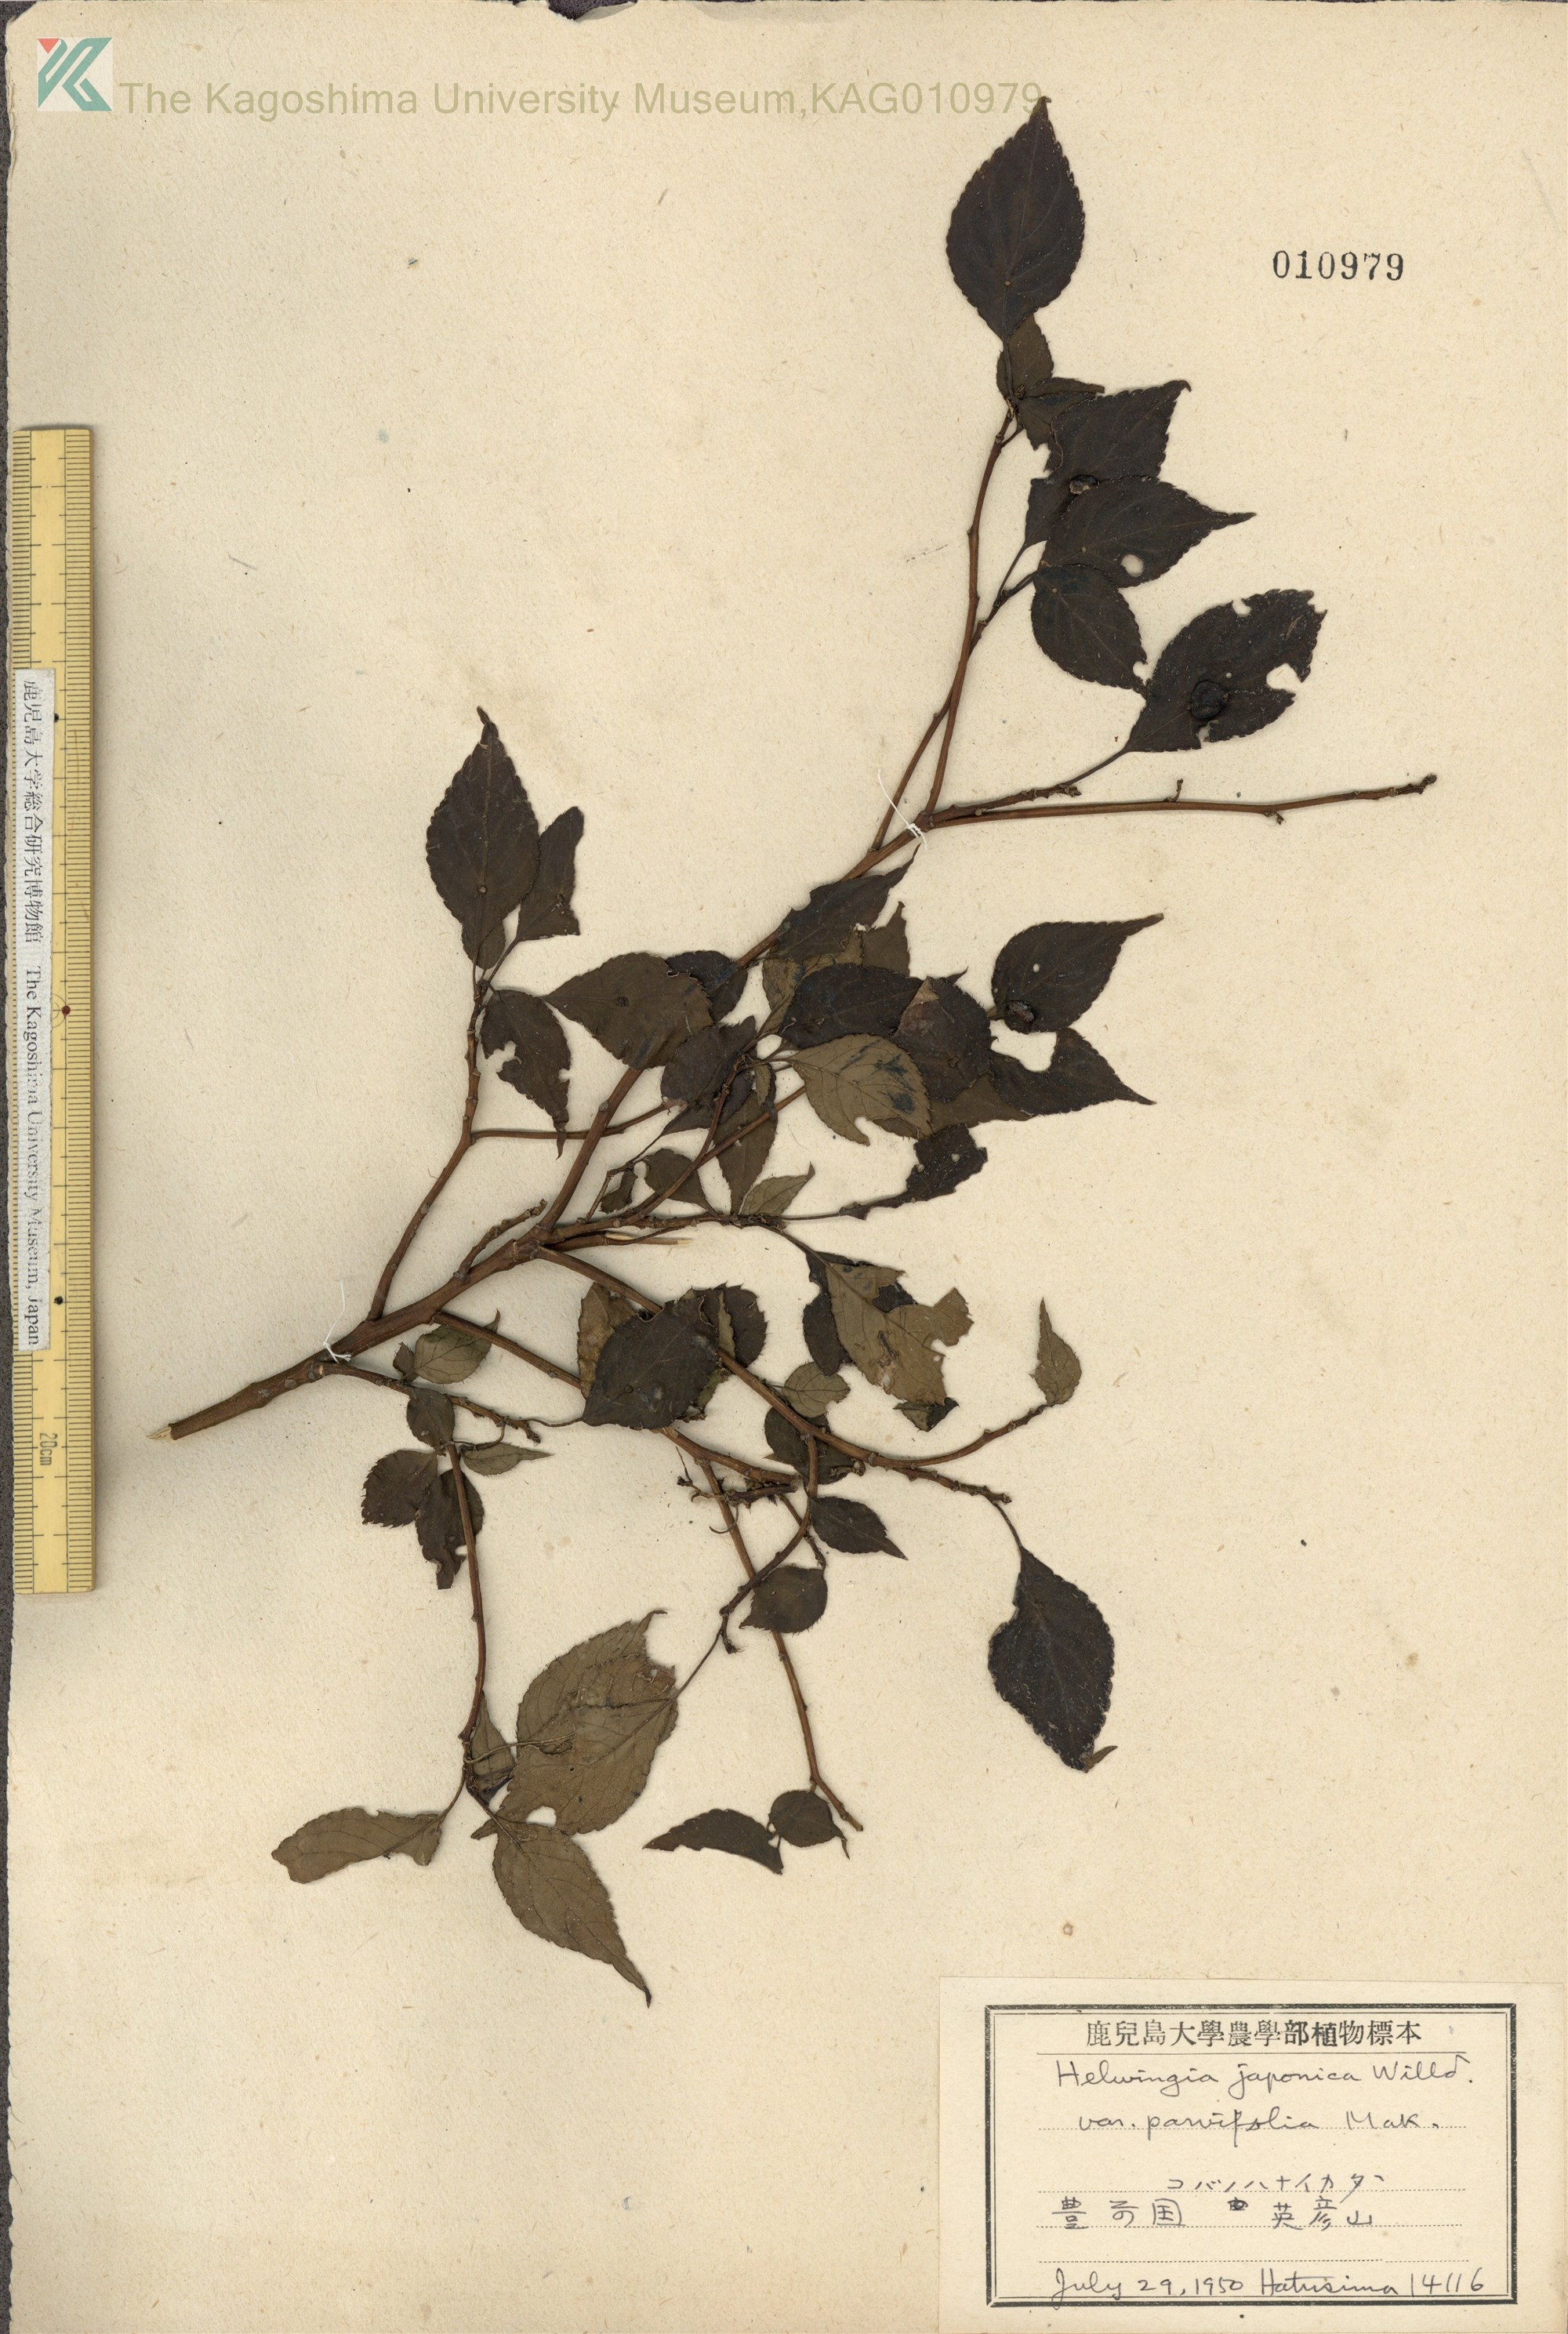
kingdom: Plantae
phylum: Tracheophyta
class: Magnoliopsida
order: Aquifoliales
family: Helwingiaceae
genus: Helwingia
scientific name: Helwingia japonica
